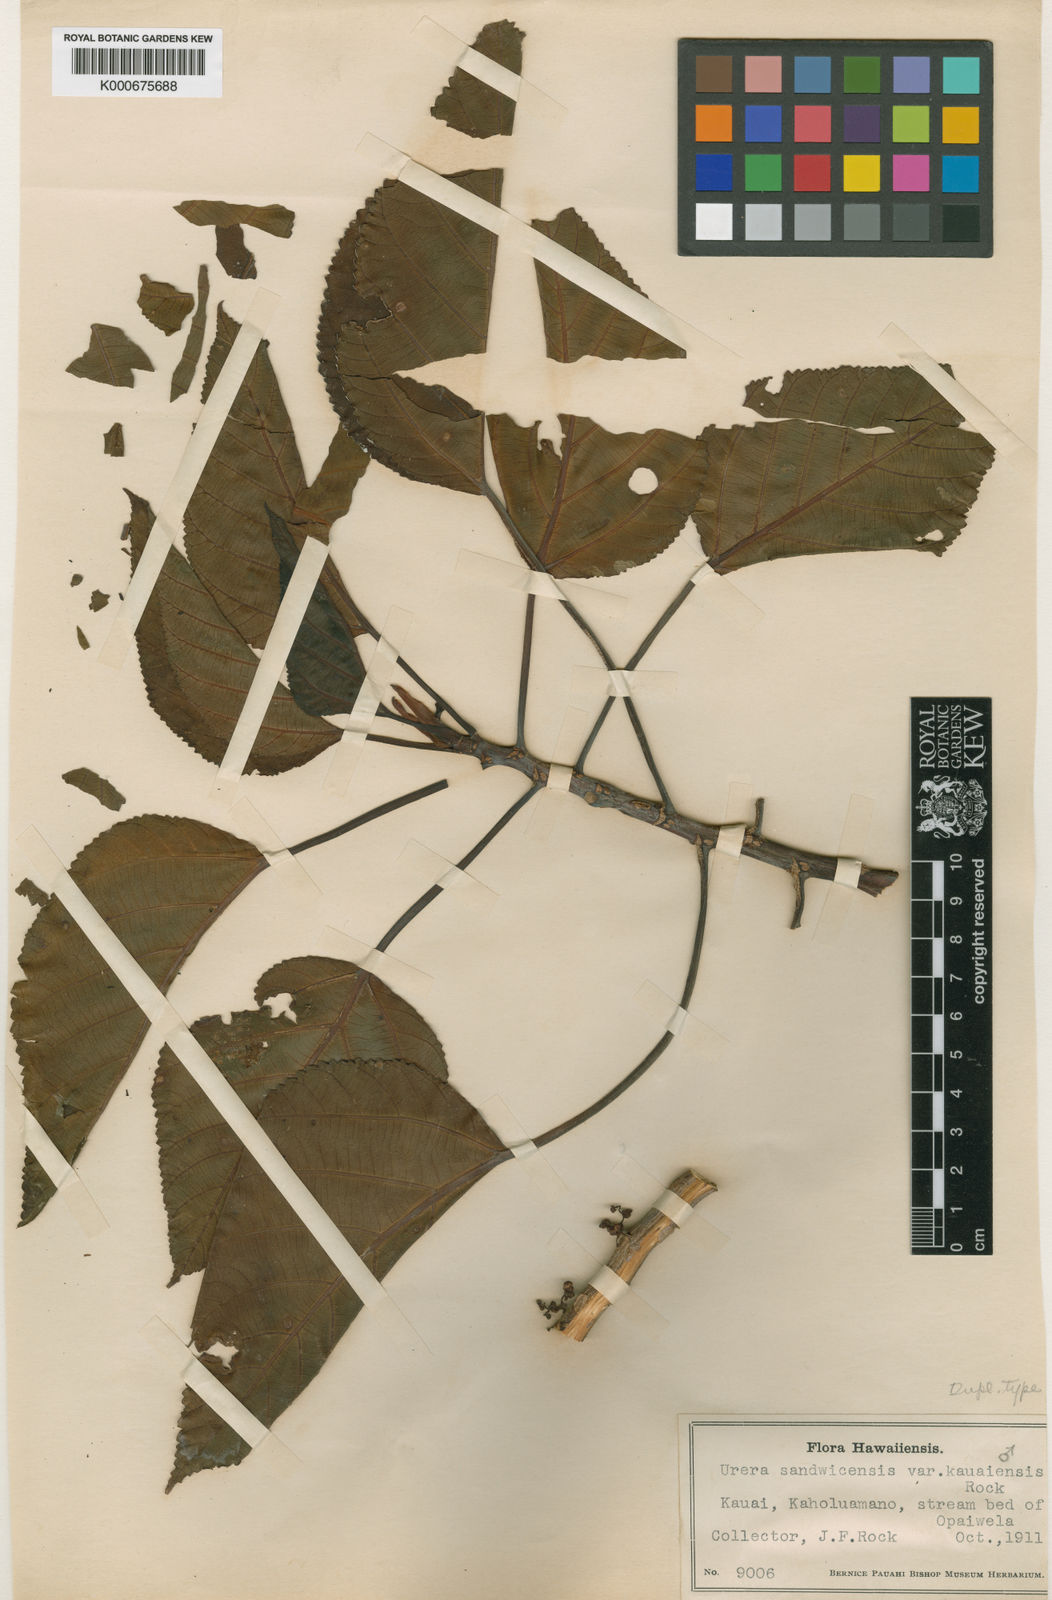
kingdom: Plantae
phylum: Tracheophyta
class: Magnoliopsida
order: Rosales
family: Urticaceae
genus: Touchardia
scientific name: Touchardia oahuensis
